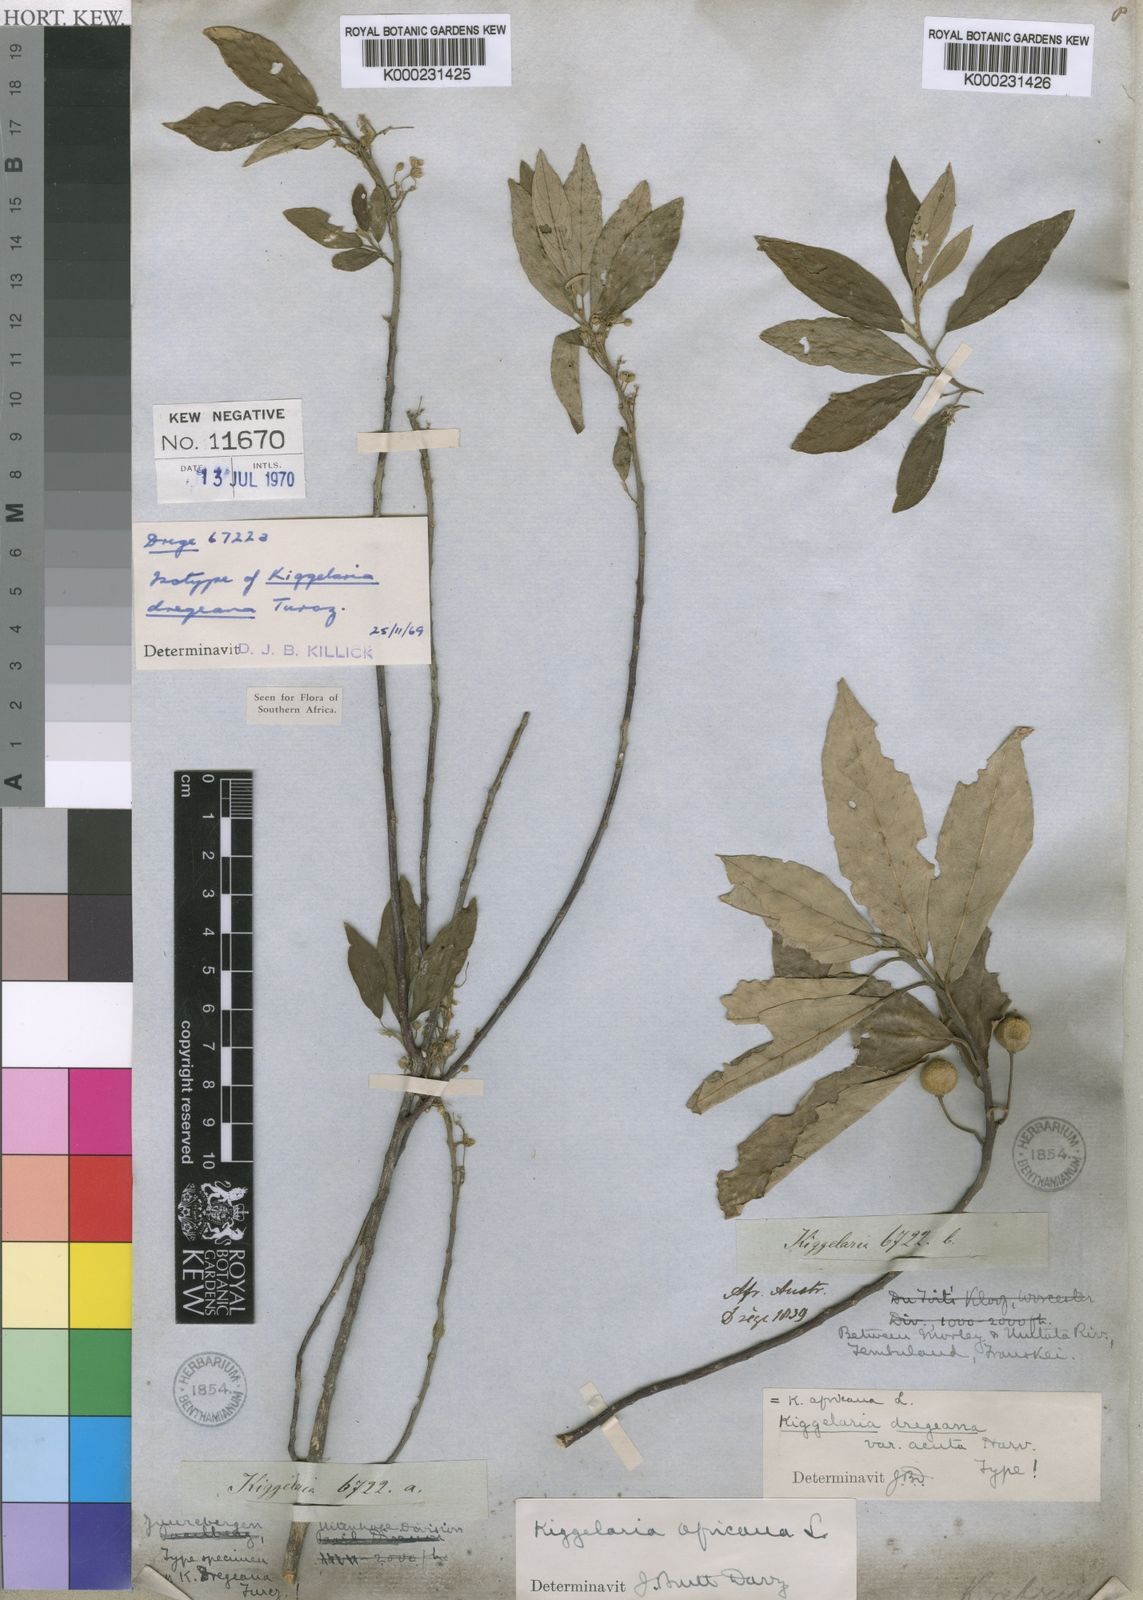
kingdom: Plantae
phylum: Tracheophyta
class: Magnoliopsida
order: Malpighiales
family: Achariaceae
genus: Kiggelaria
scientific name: Kiggelaria africana
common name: Wild peach
